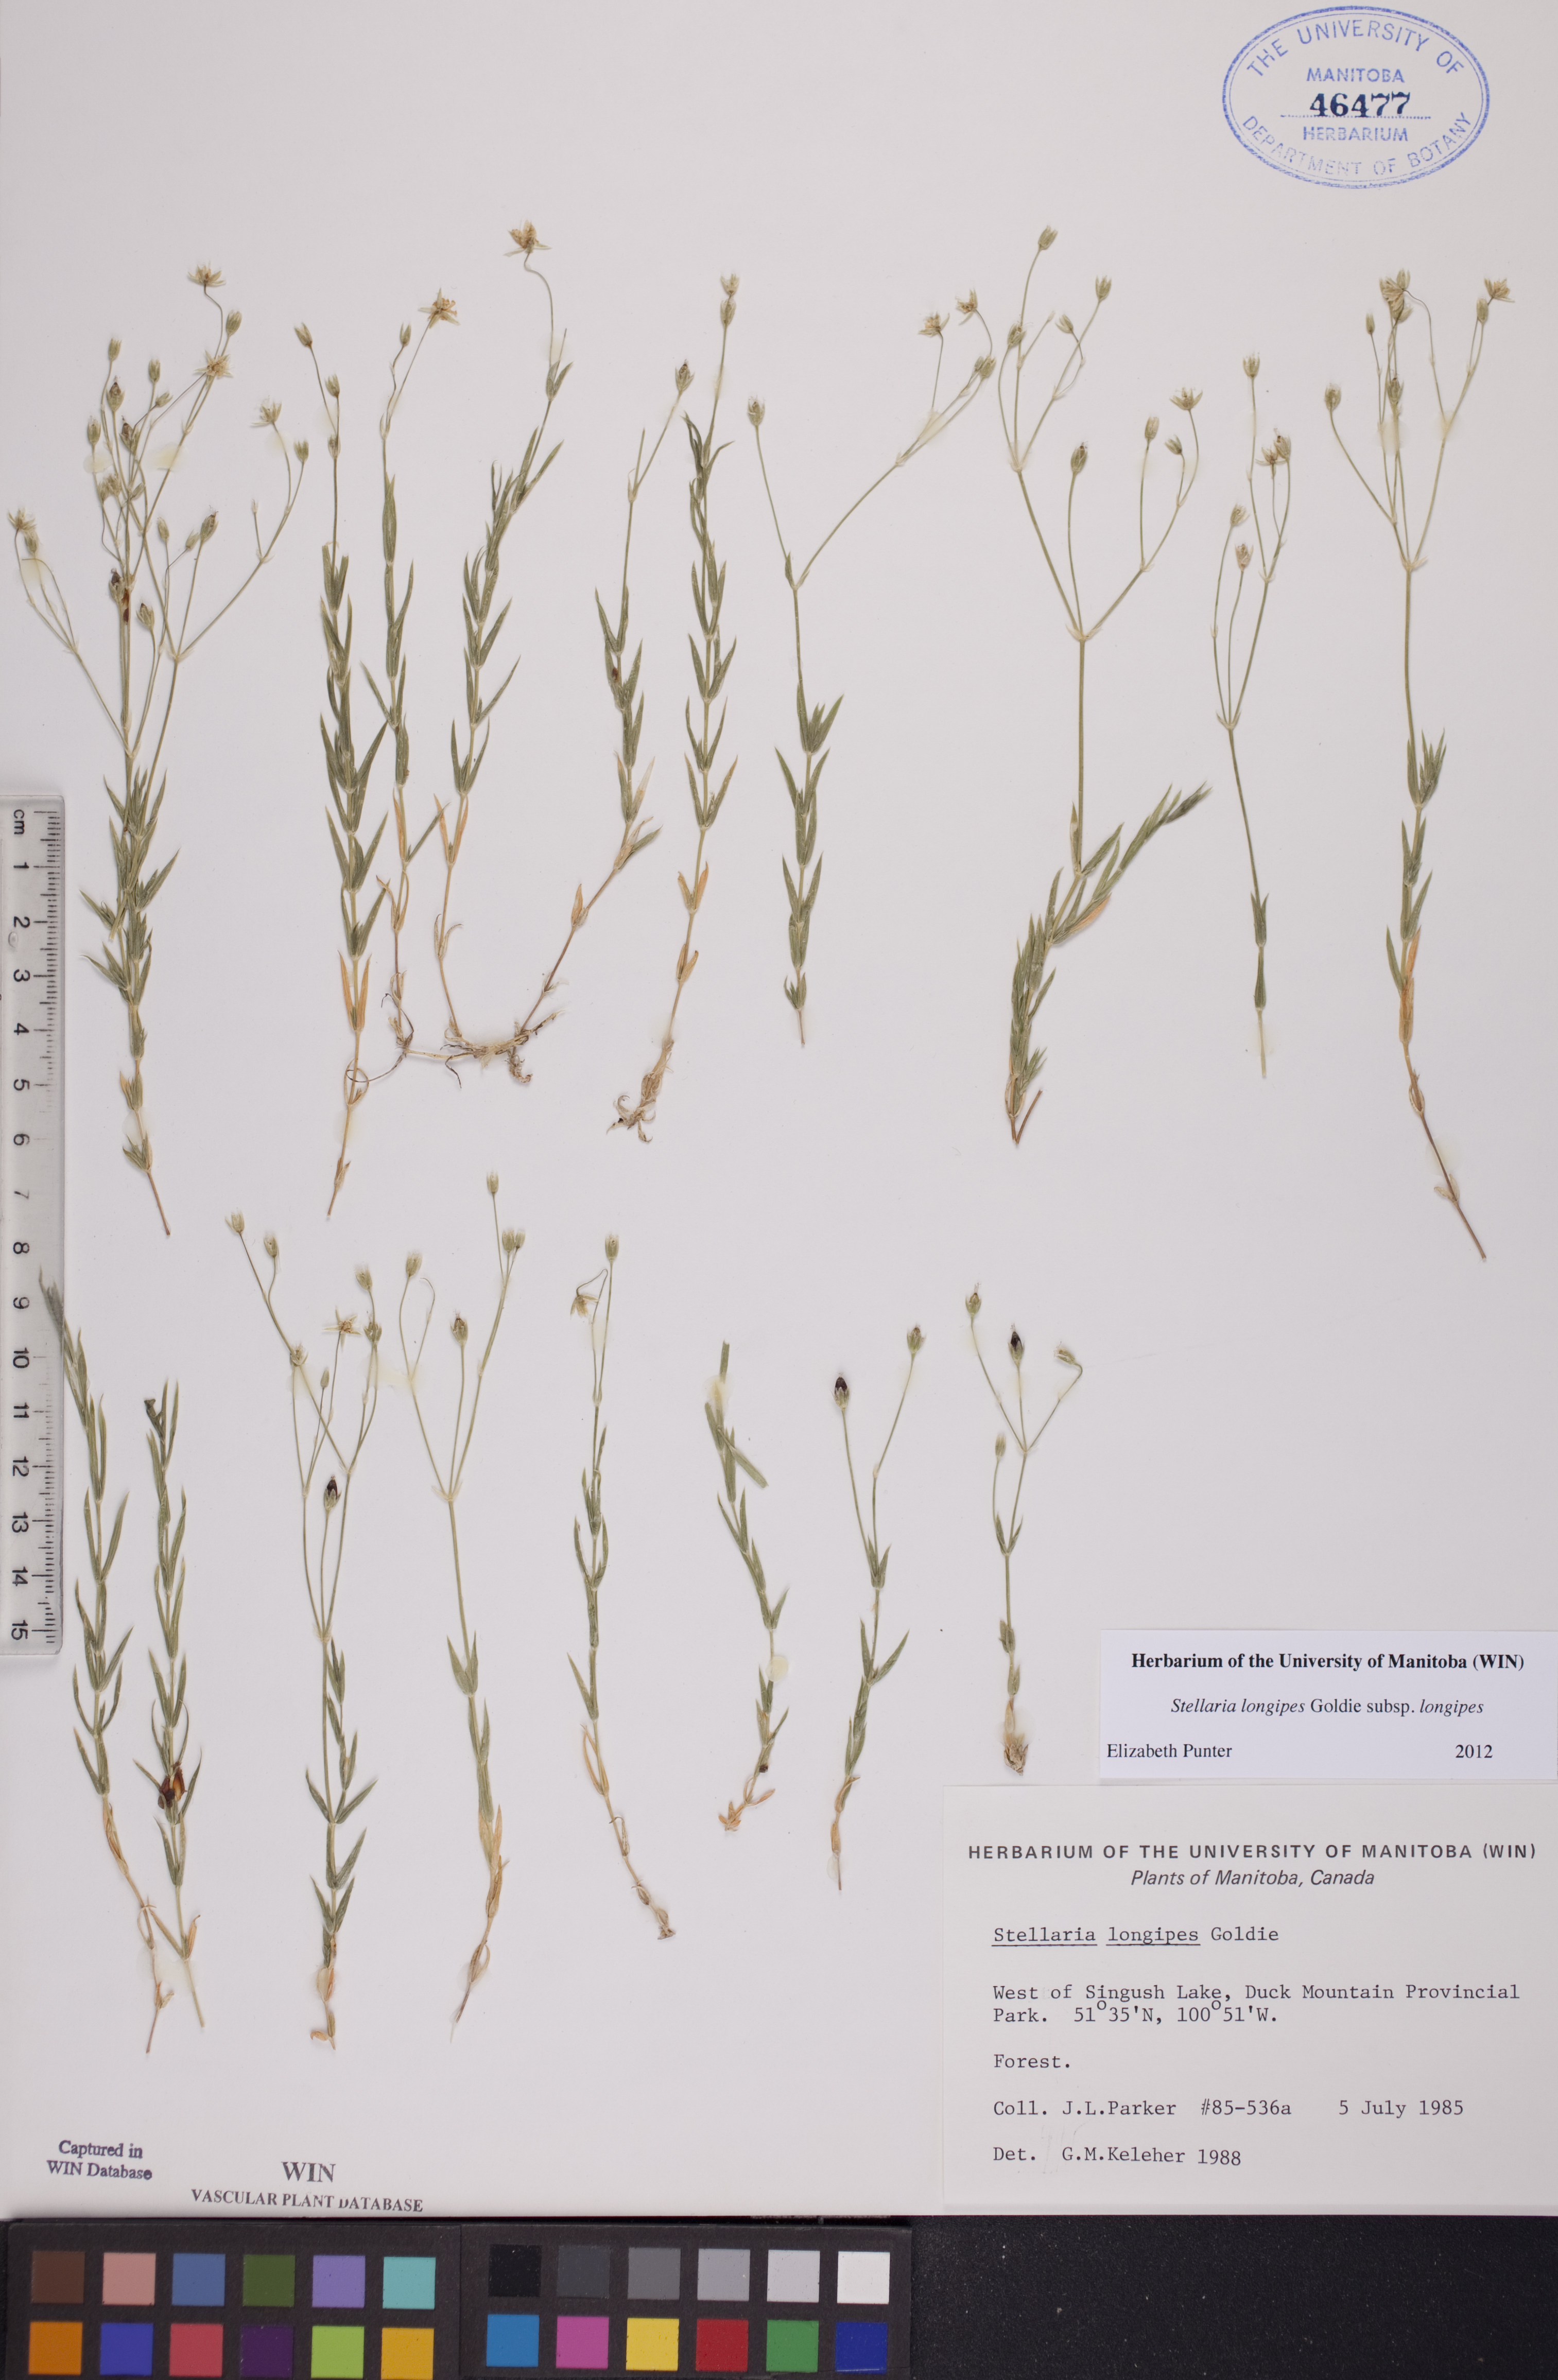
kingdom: Plantae
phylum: Tracheophyta
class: Magnoliopsida
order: Caryophyllales
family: Caryophyllaceae
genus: Stellaria
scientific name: Stellaria longipes
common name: Goldie's starwort
